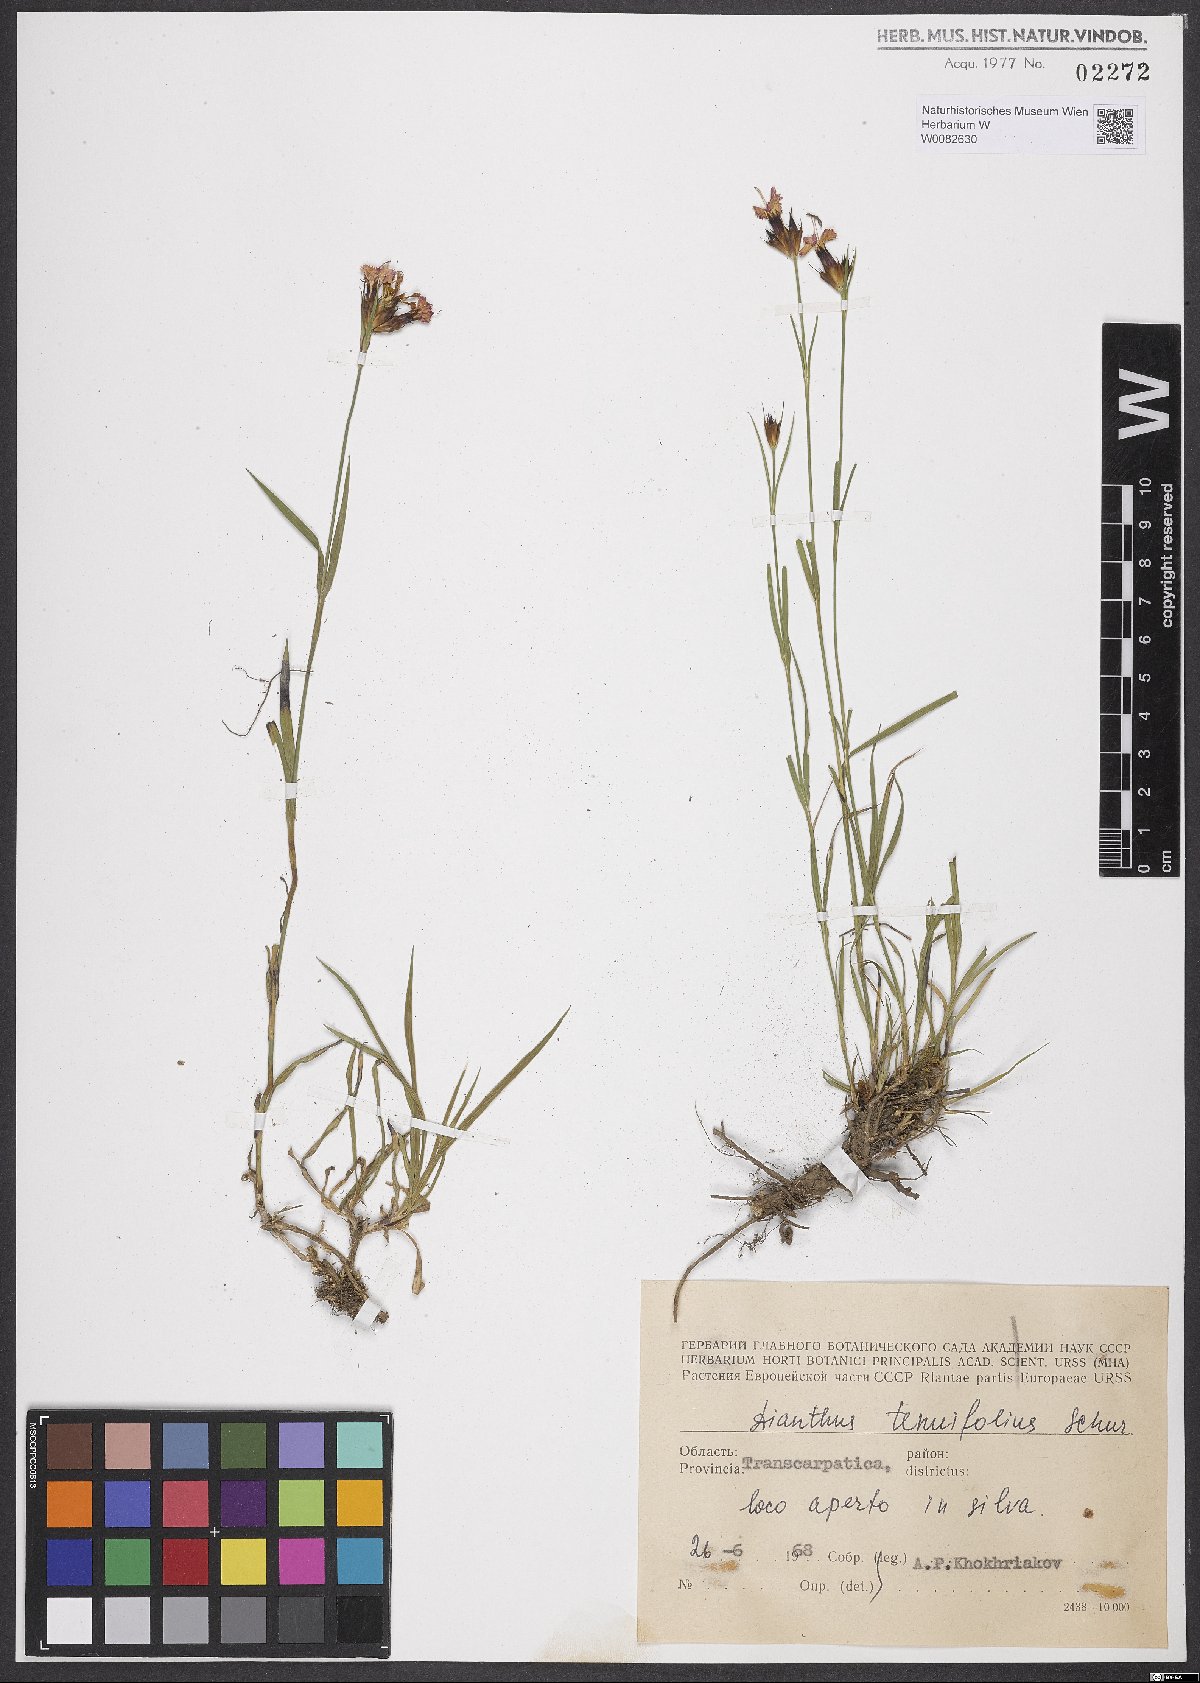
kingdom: Plantae
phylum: Tracheophyta
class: Magnoliopsida
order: Caryophyllales
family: Caryophyllaceae
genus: Dianthus
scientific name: Dianthus carthusianorum
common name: Carthusian pink
